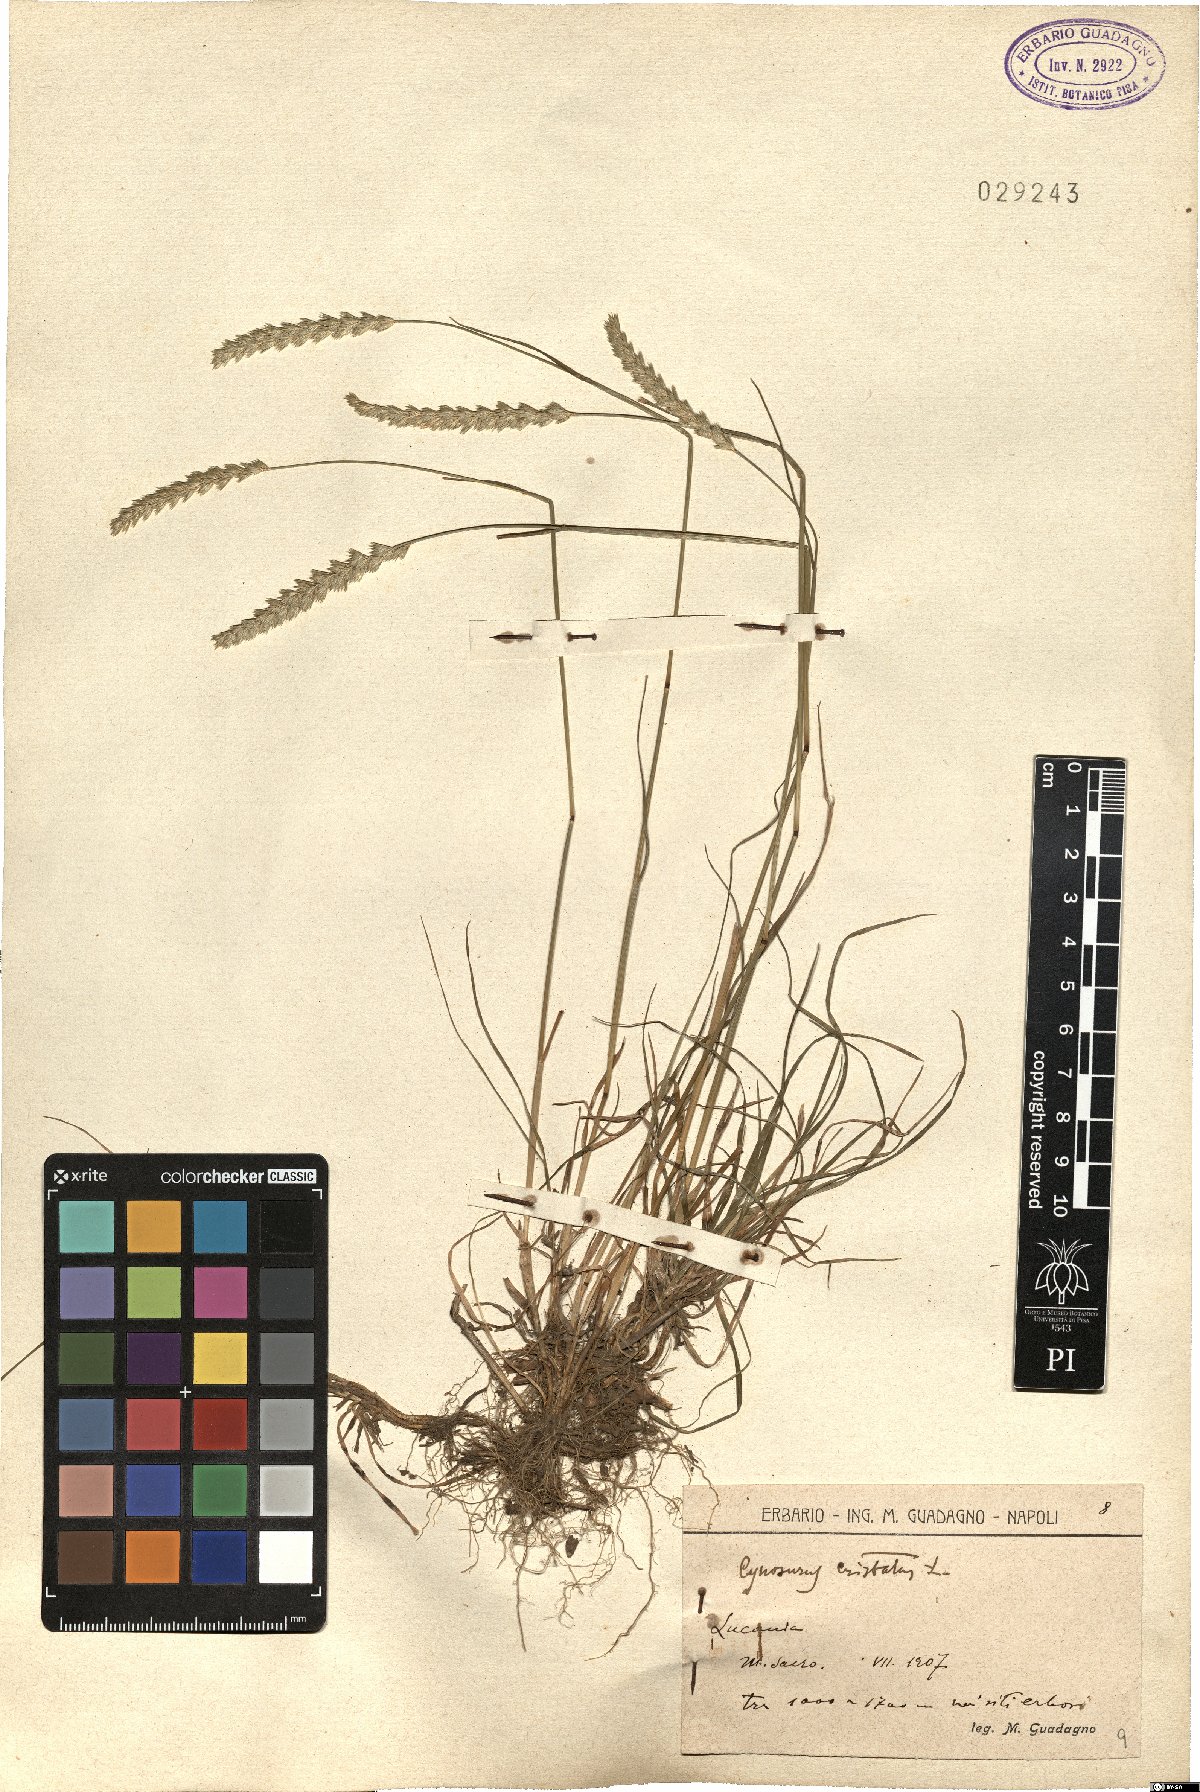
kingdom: Plantae
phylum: Tracheophyta
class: Liliopsida
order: Poales
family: Poaceae
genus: Cynosurus
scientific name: Cynosurus cristatus
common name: Crested dog's-tail
